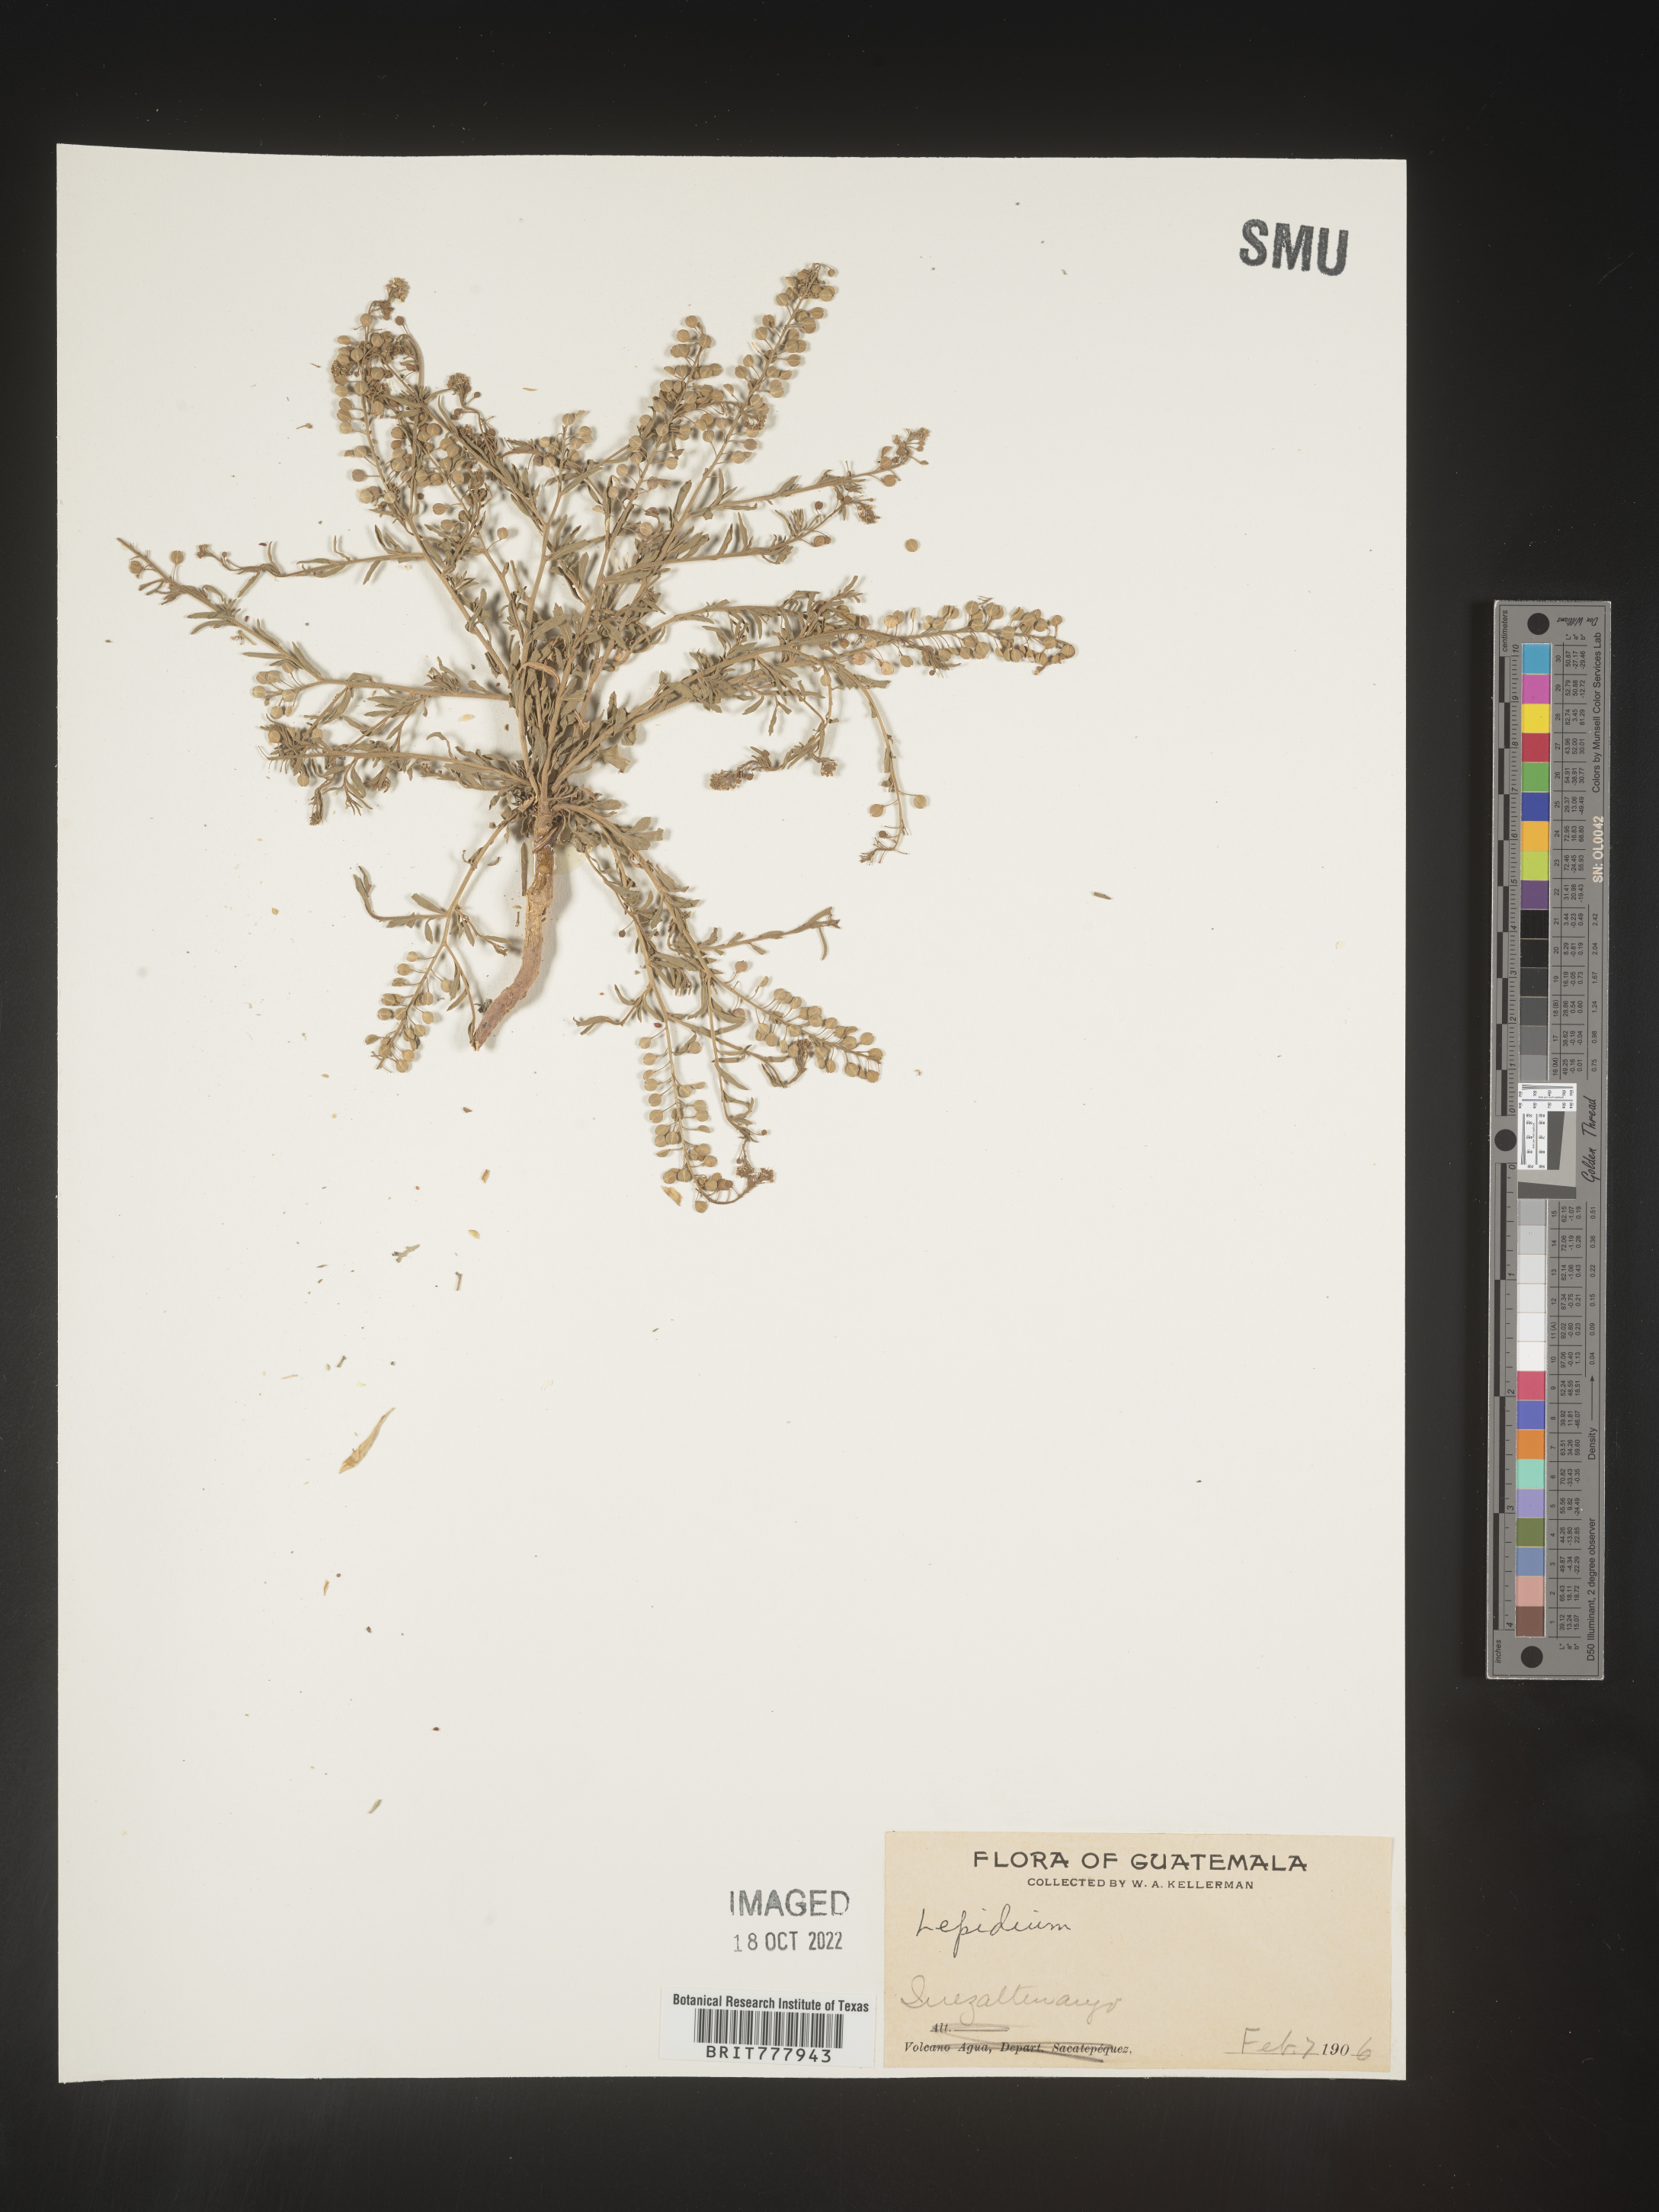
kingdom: Plantae
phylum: Tracheophyta
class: Magnoliopsida
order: Brassicales
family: Brassicaceae
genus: Lepidium
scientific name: Lepidium
